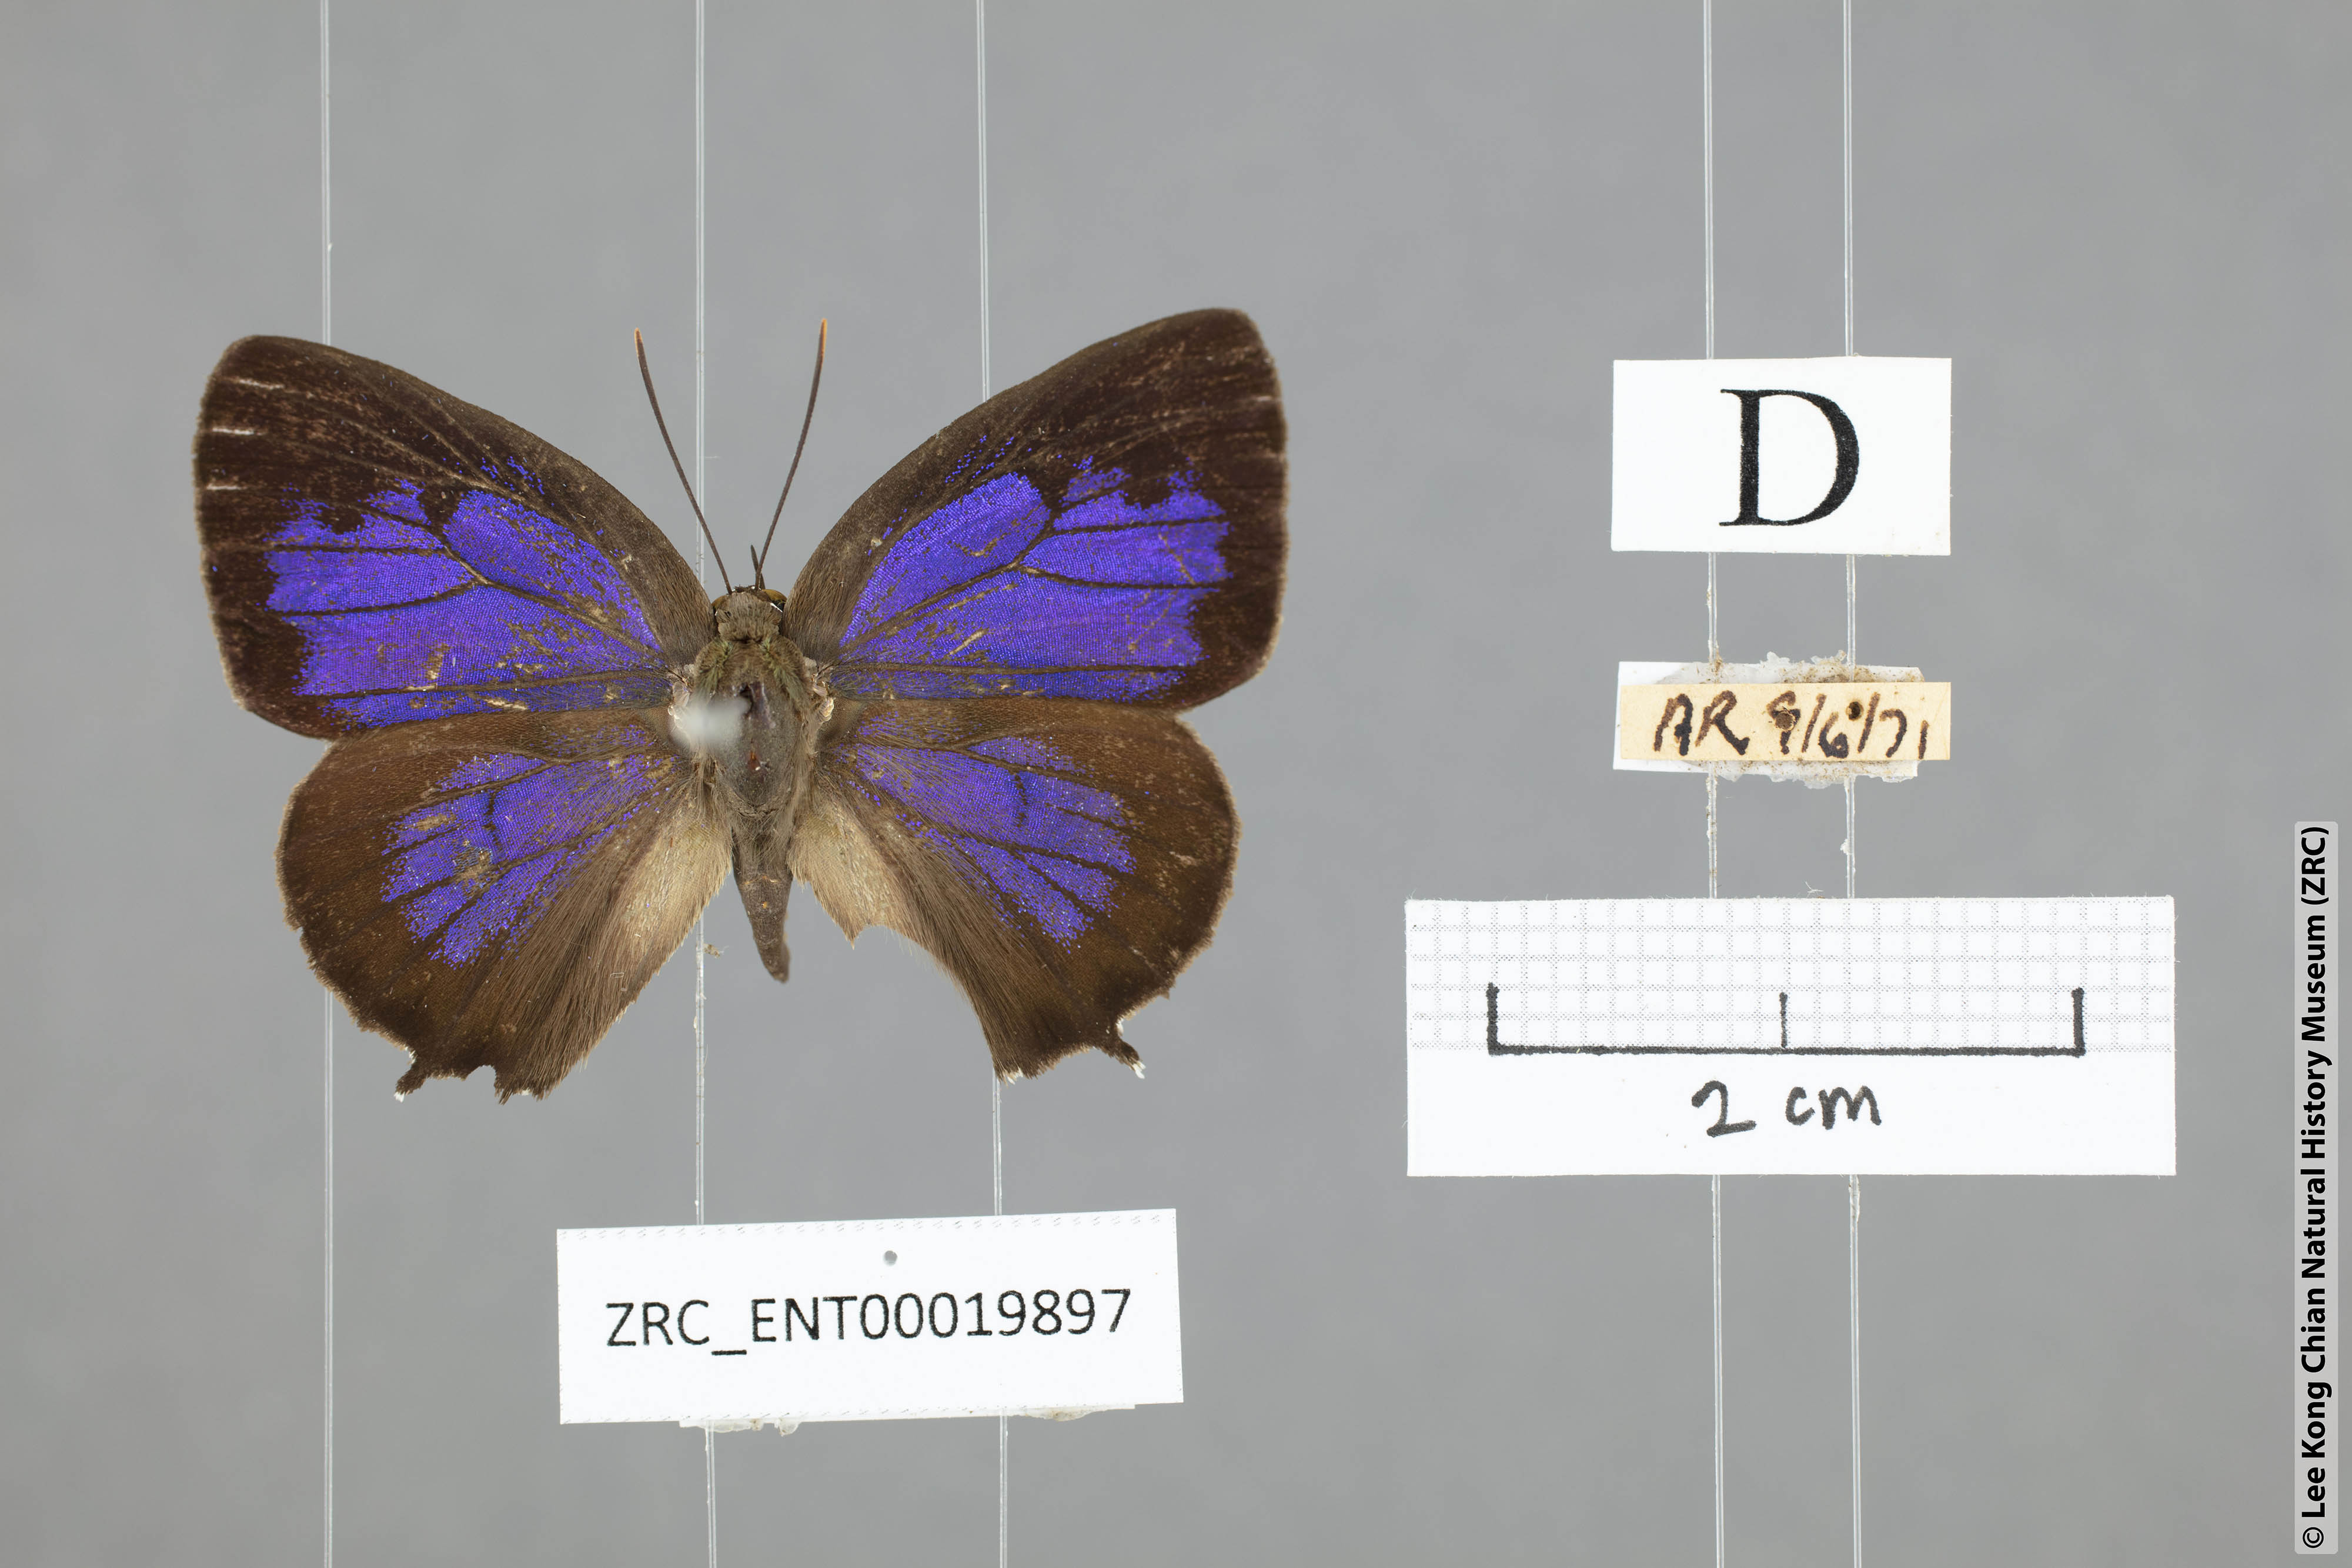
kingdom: Animalia
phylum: Arthropoda
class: Insecta
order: Lepidoptera
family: Lycaenidae
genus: Arhopala
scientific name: Arhopala trogon
